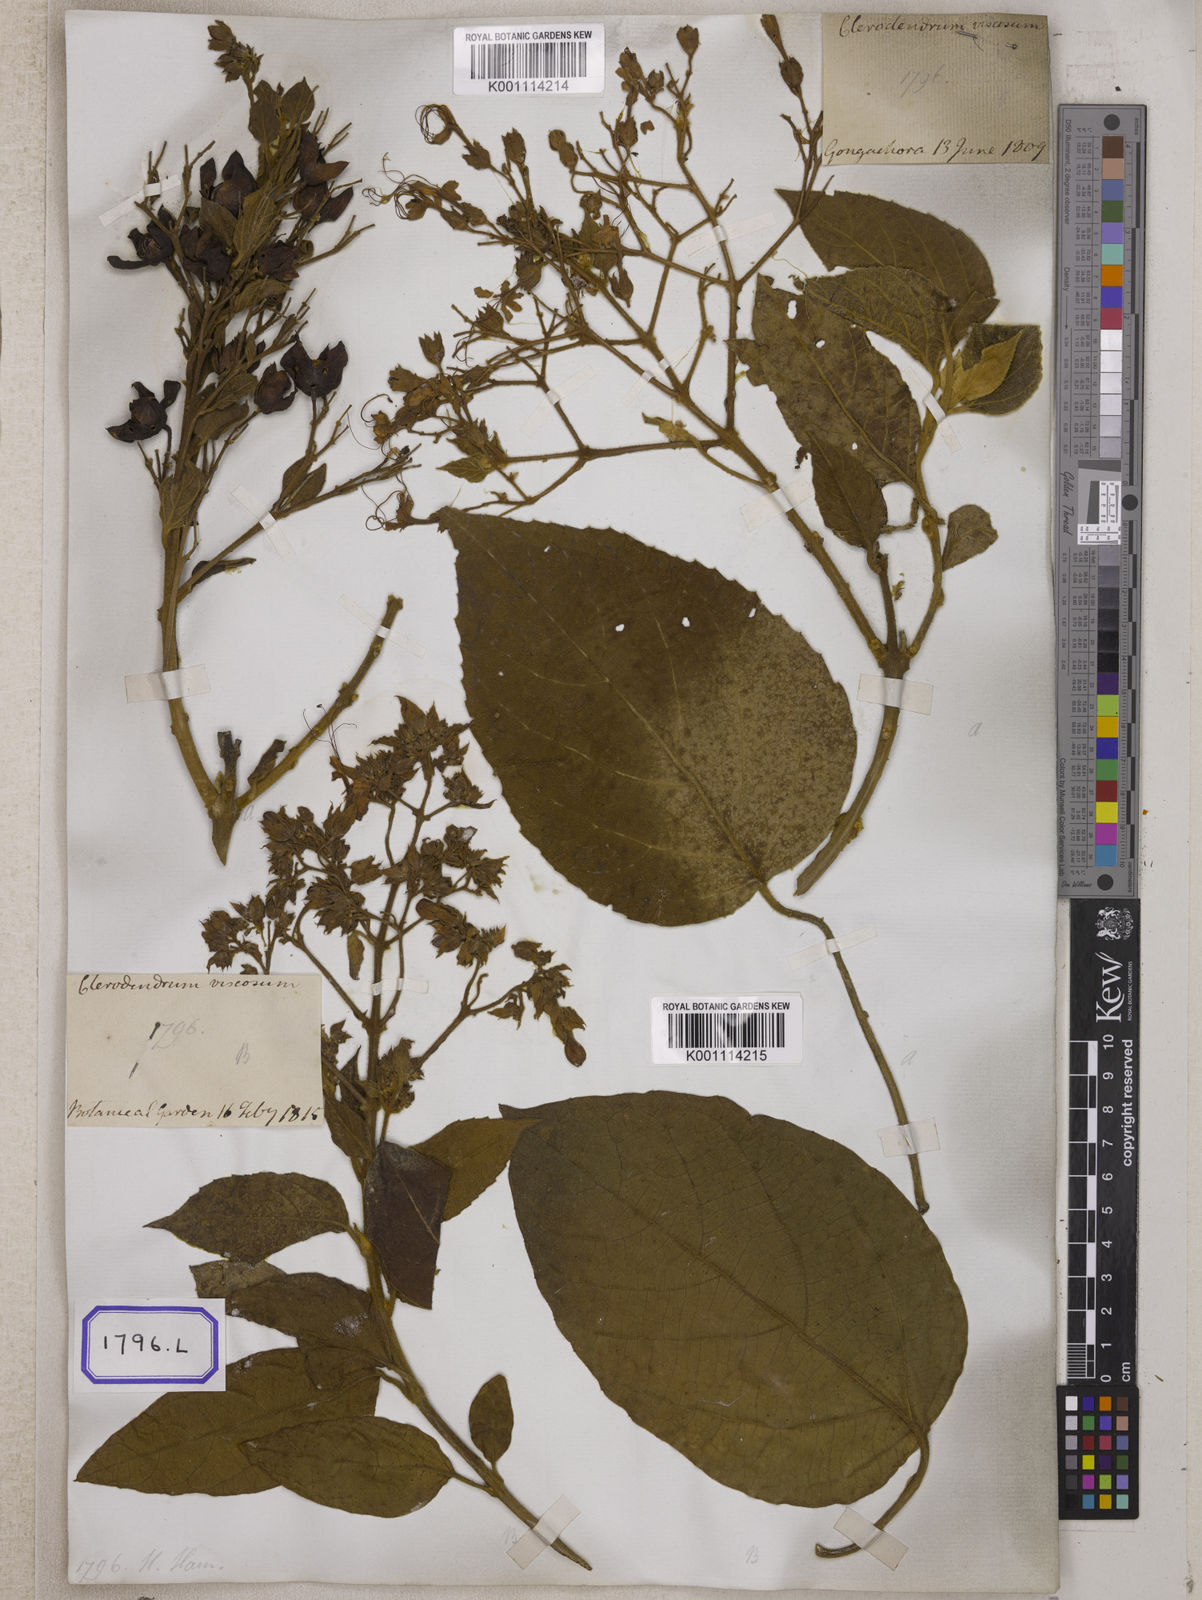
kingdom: Plantae
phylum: Tracheophyta
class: Magnoliopsida
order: Lamiales
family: Lamiaceae
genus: Clerodendrum
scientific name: Clerodendrum infortunatum
